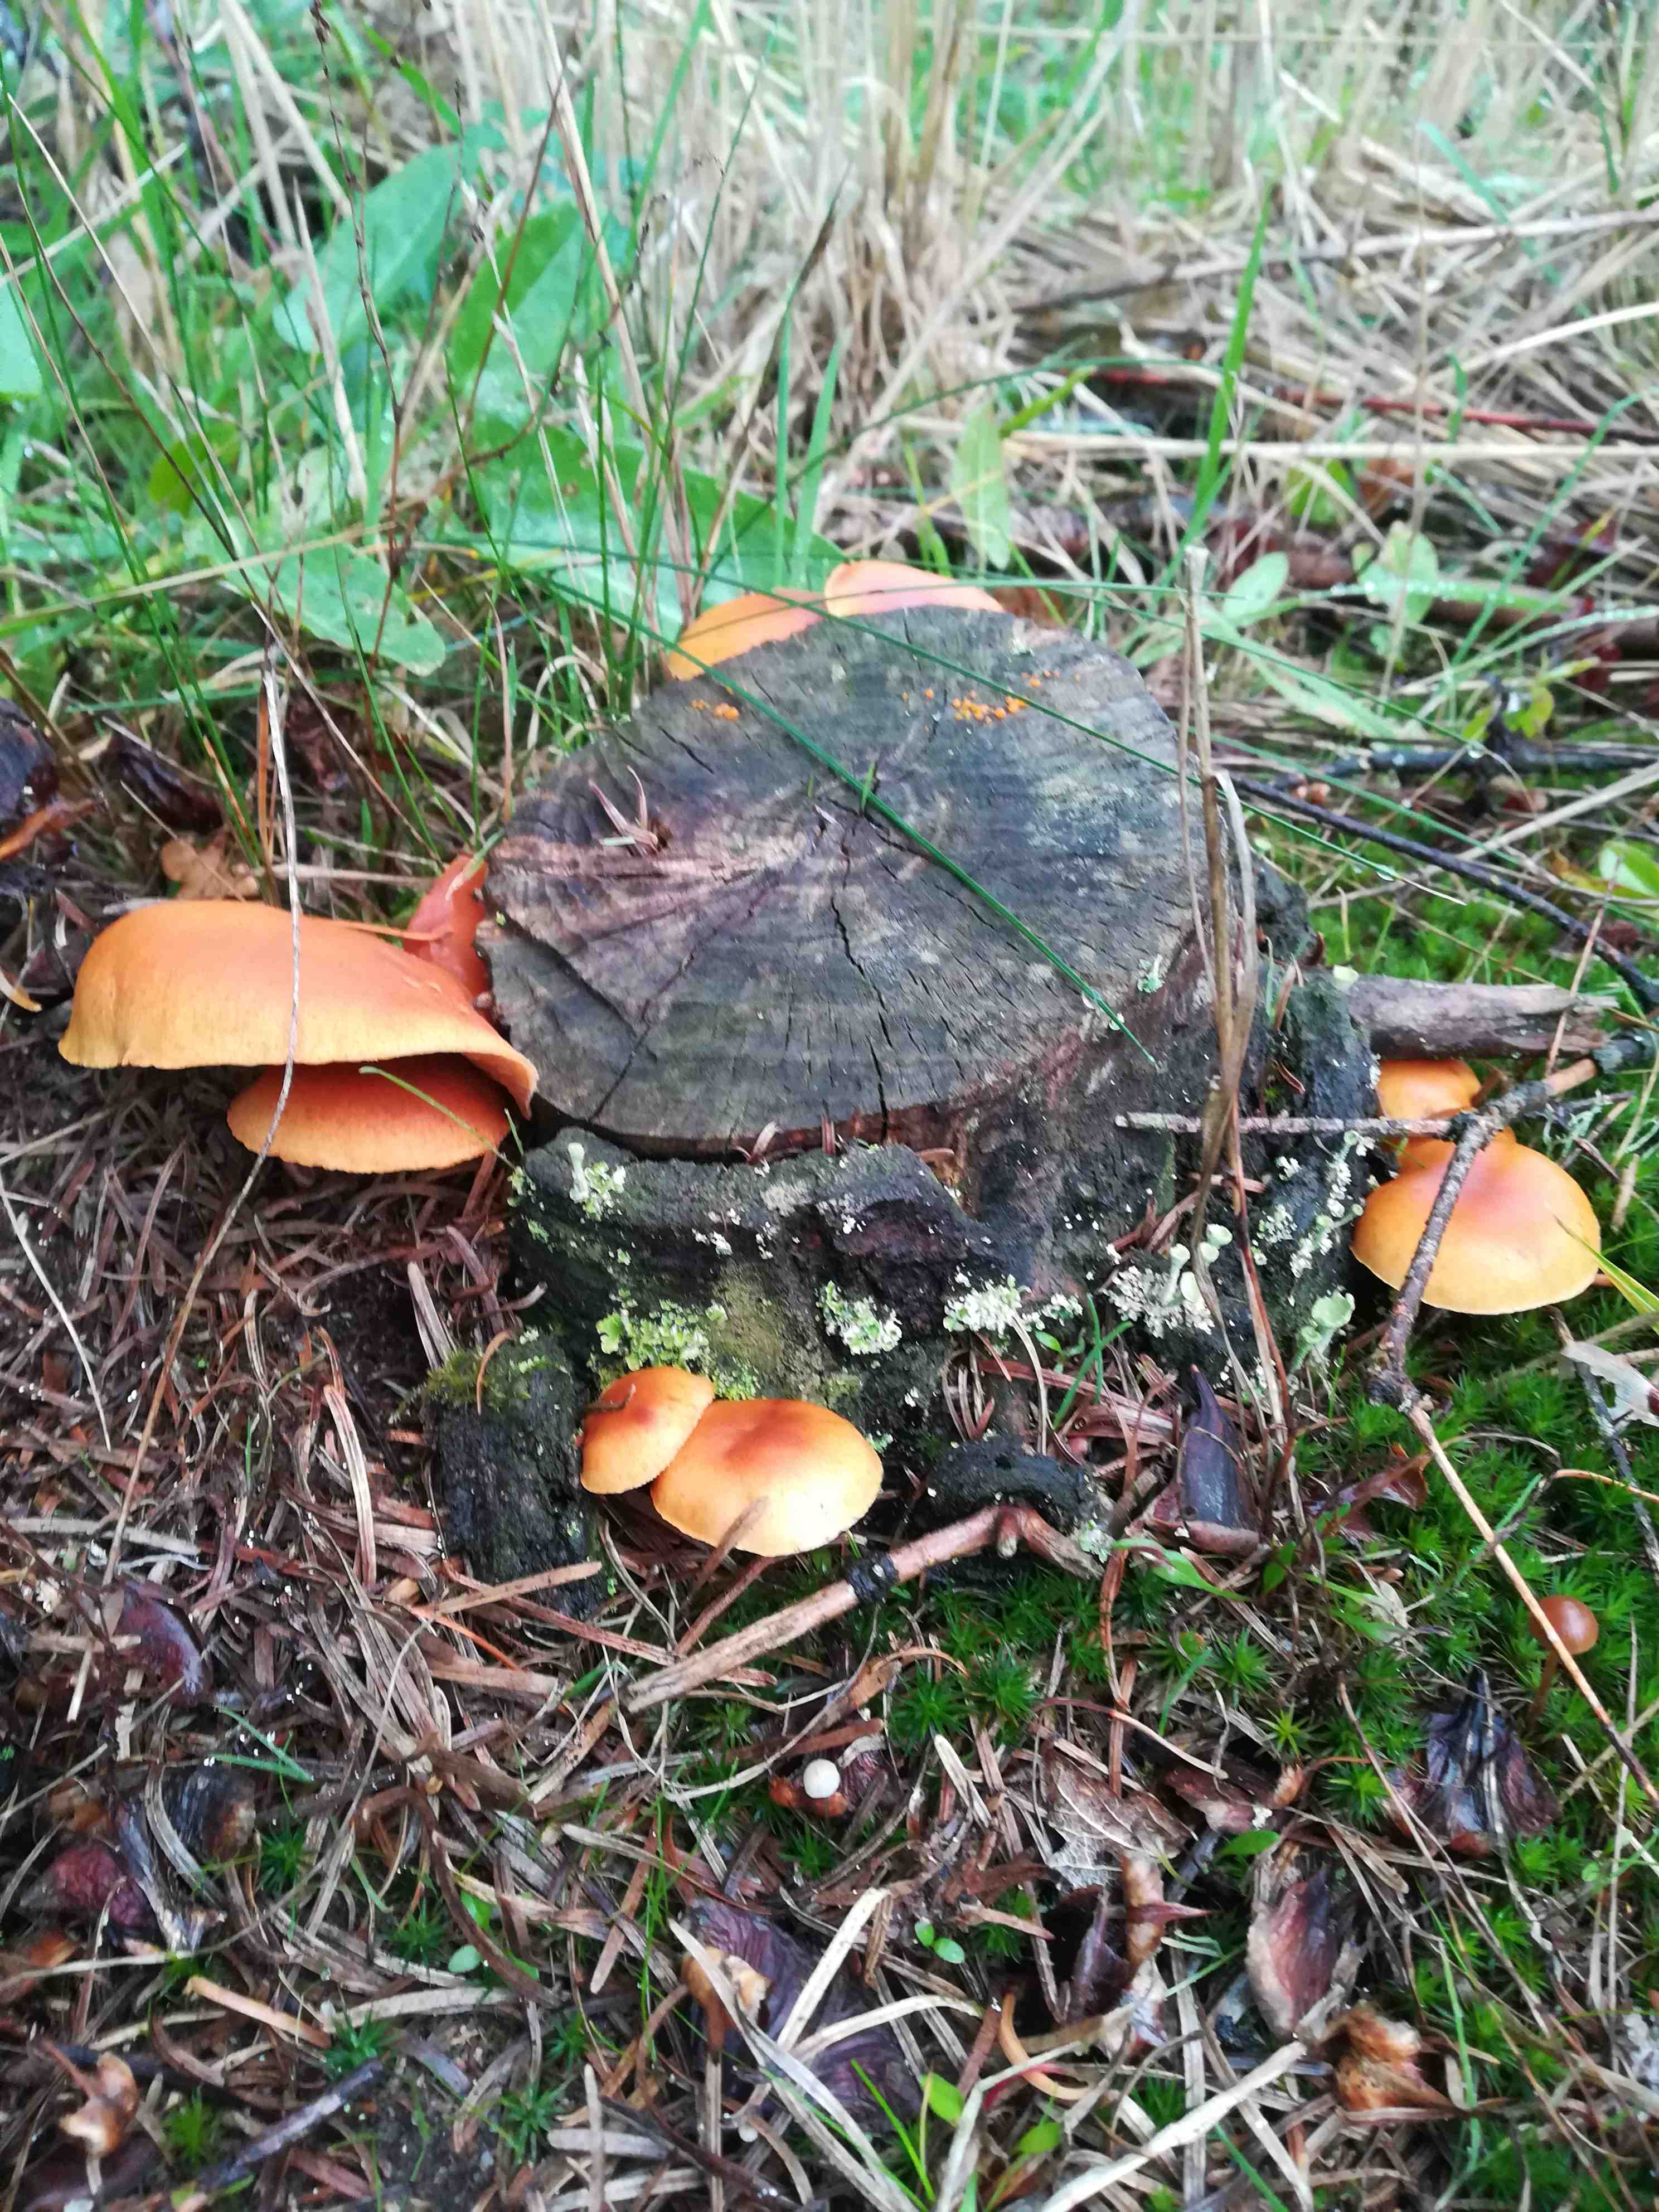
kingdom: Fungi
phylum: Basidiomycota
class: Agaricomycetes
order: Agaricales
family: Hymenogastraceae
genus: Gymnopilus
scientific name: Gymnopilus penetrans
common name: plettet flammehat
